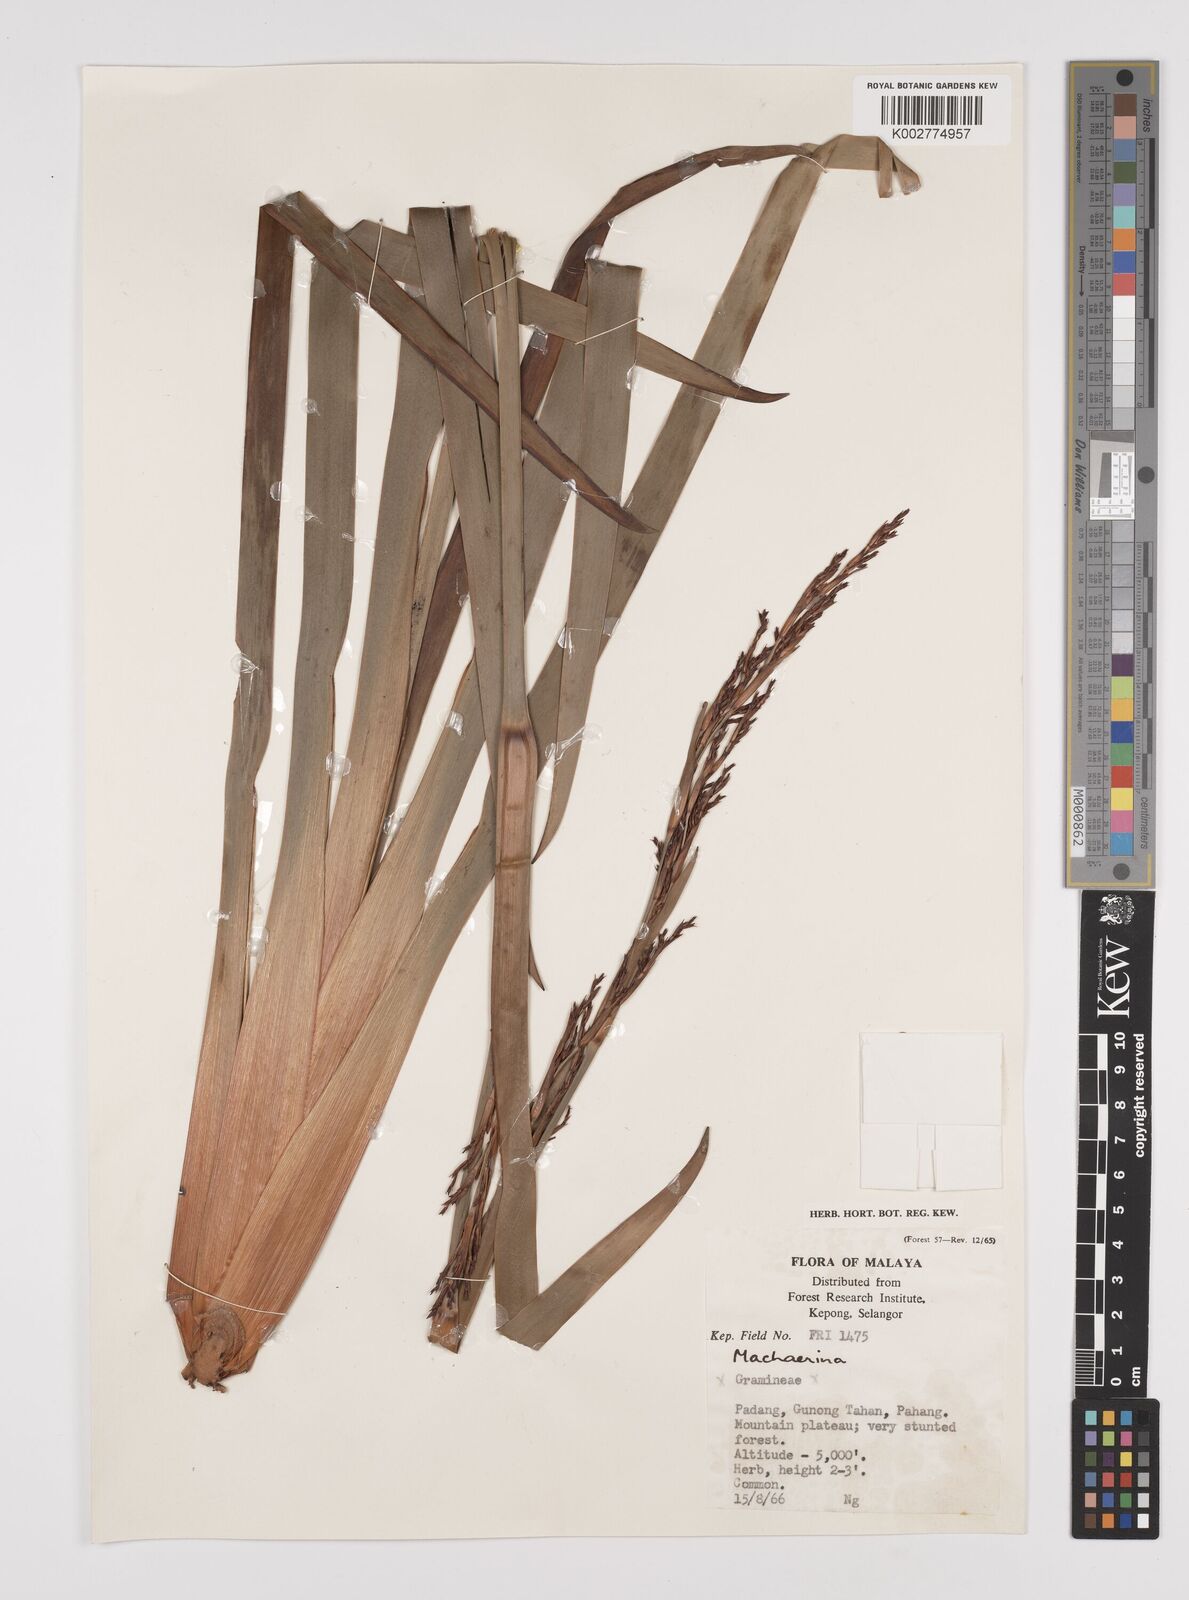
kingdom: Plantae
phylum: Tracheophyta
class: Liliopsida
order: Poales
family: Cyperaceae
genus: Machaerina
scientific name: Machaerina
